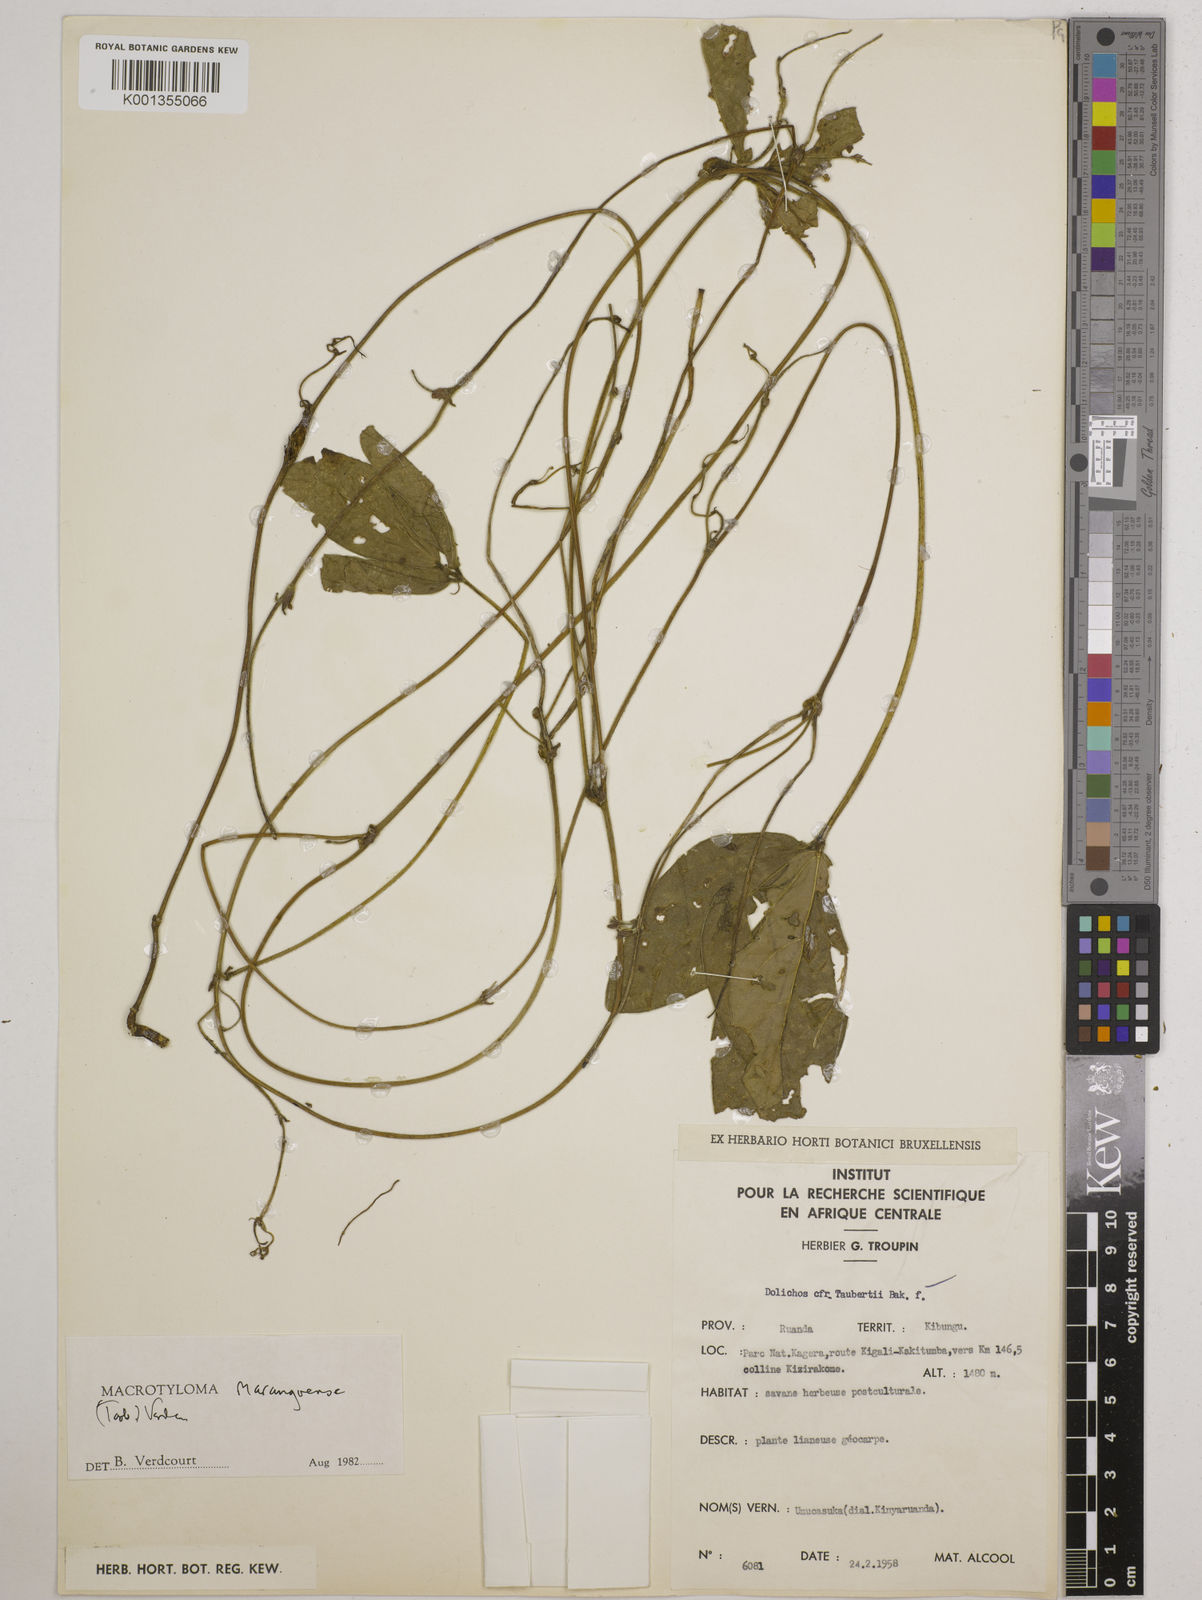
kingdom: Plantae
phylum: Tracheophyta
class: Magnoliopsida
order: Fabales
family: Fabaceae
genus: Macrotyloma
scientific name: Macrotyloma maranguense
